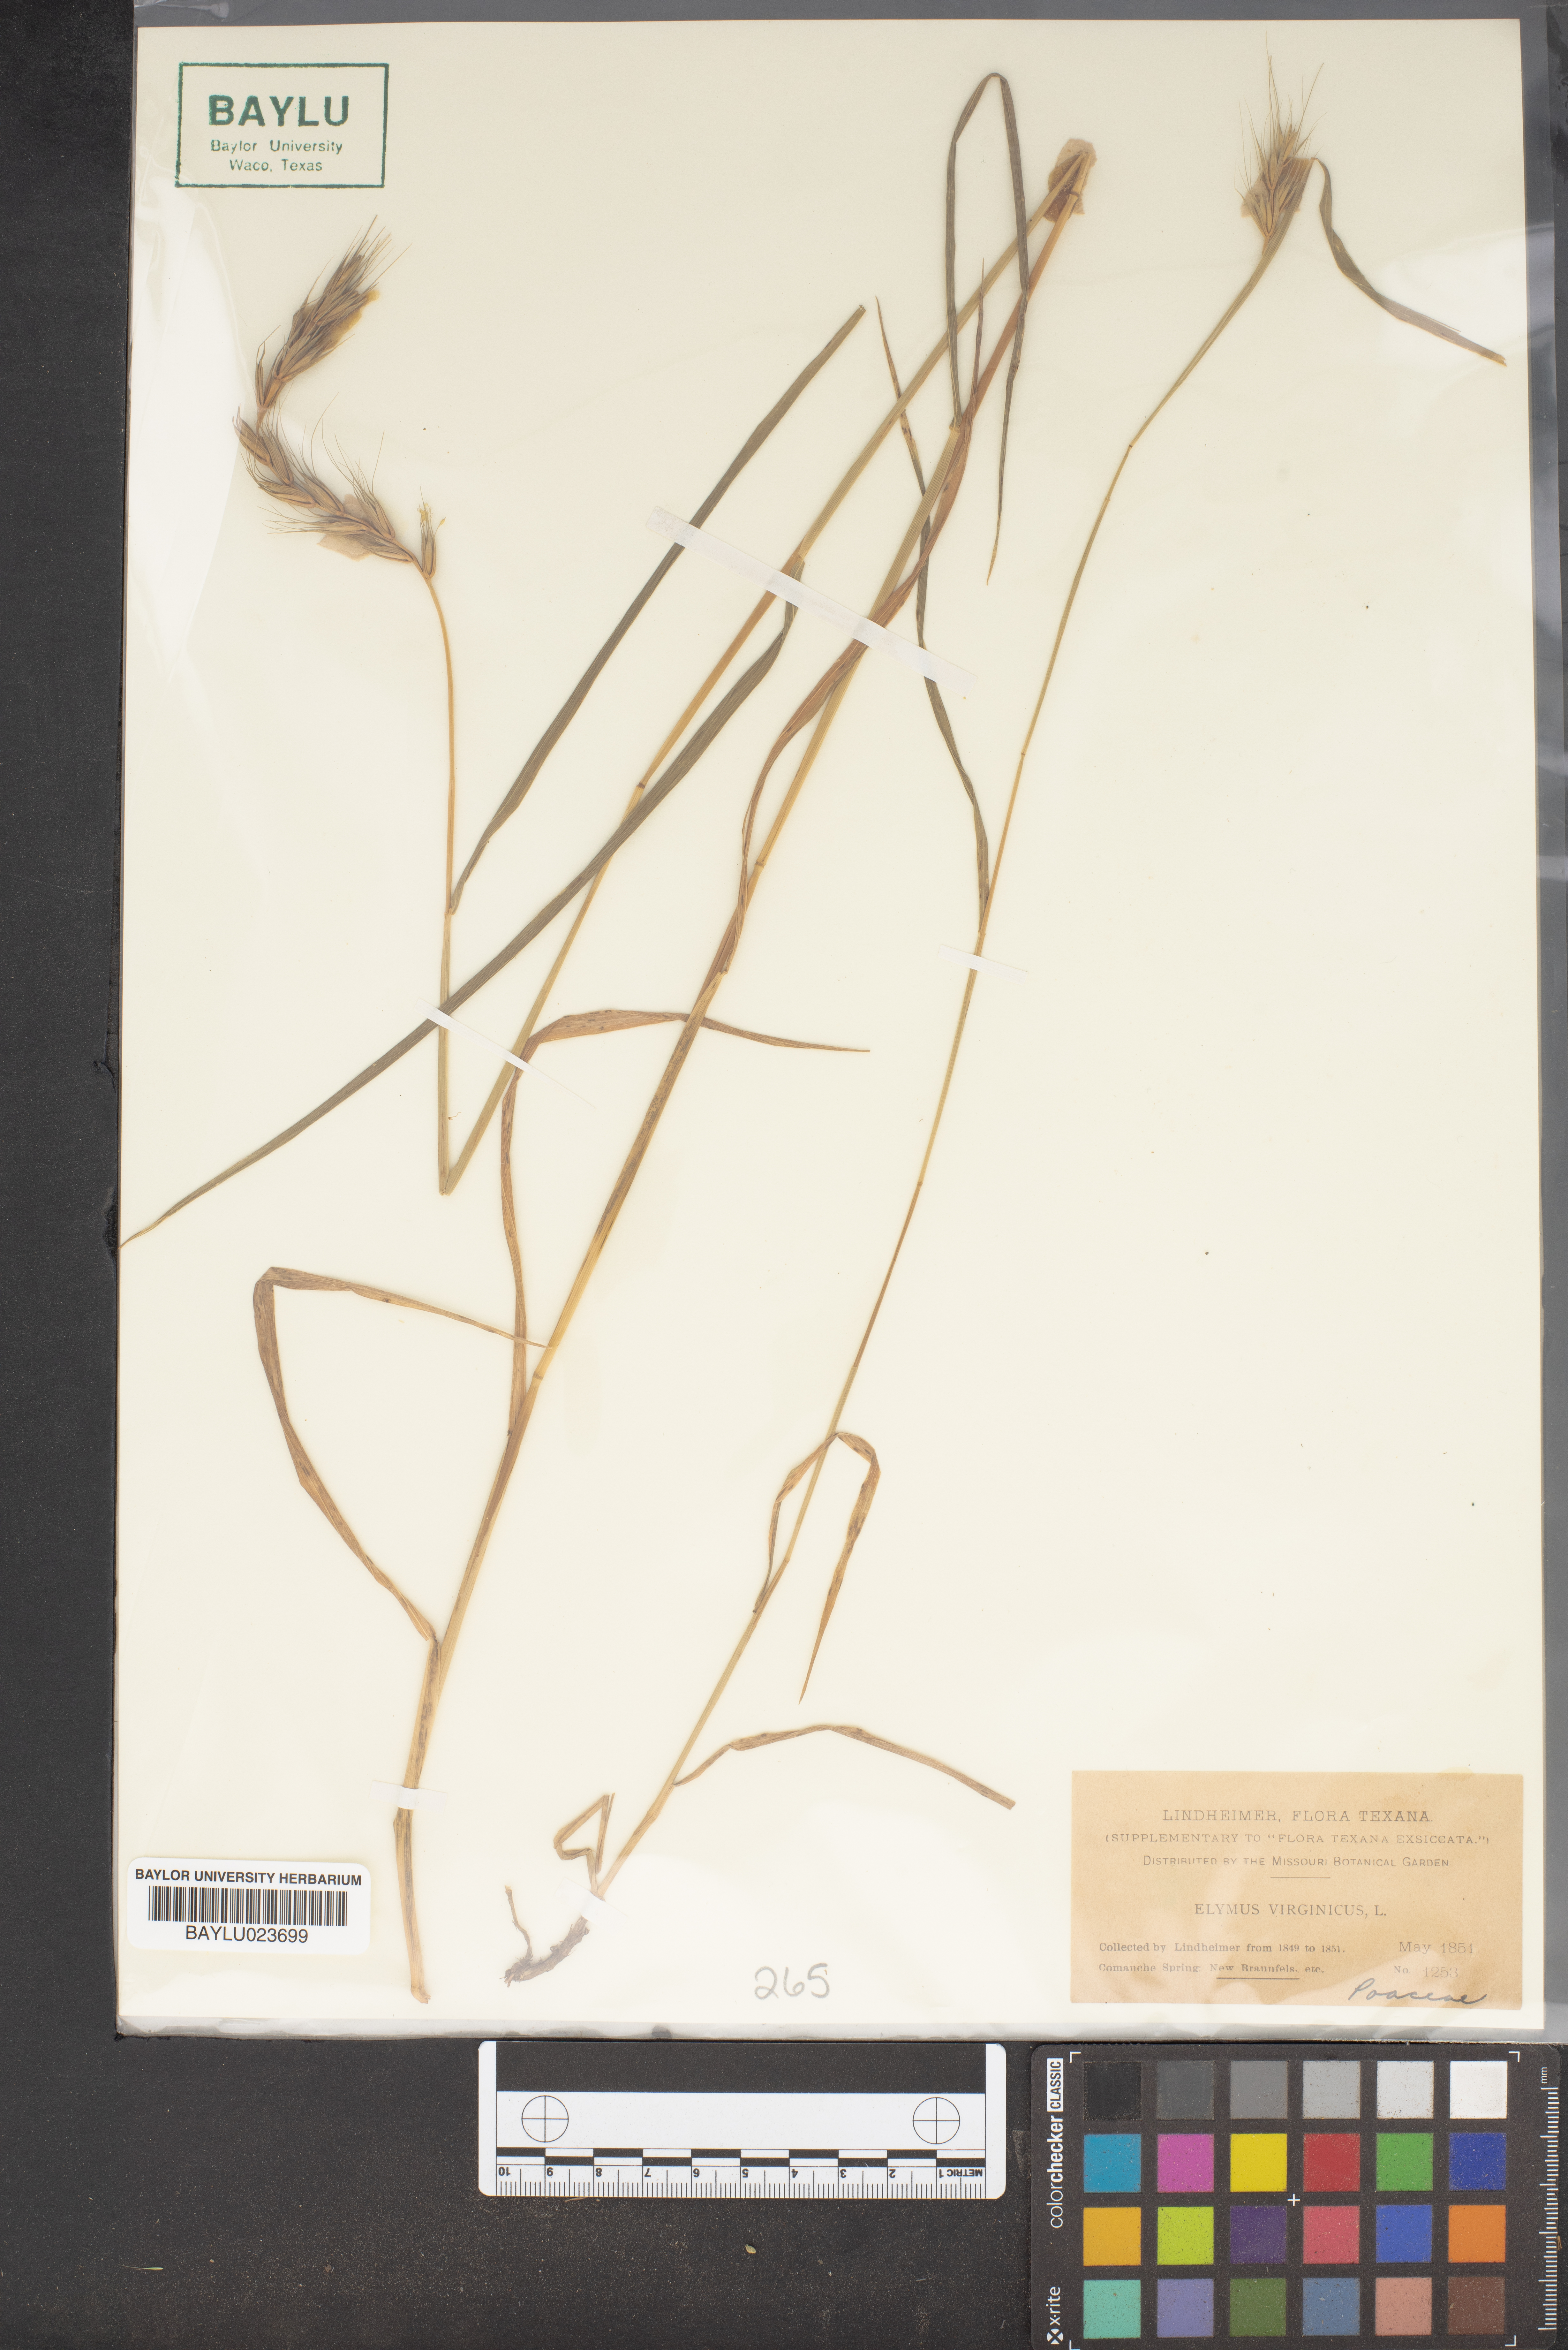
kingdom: Plantae
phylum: Tracheophyta
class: Liliopsida
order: Poales
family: Poaceae
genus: Elymus
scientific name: Elymus virginicus
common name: Common eastern wildrye
